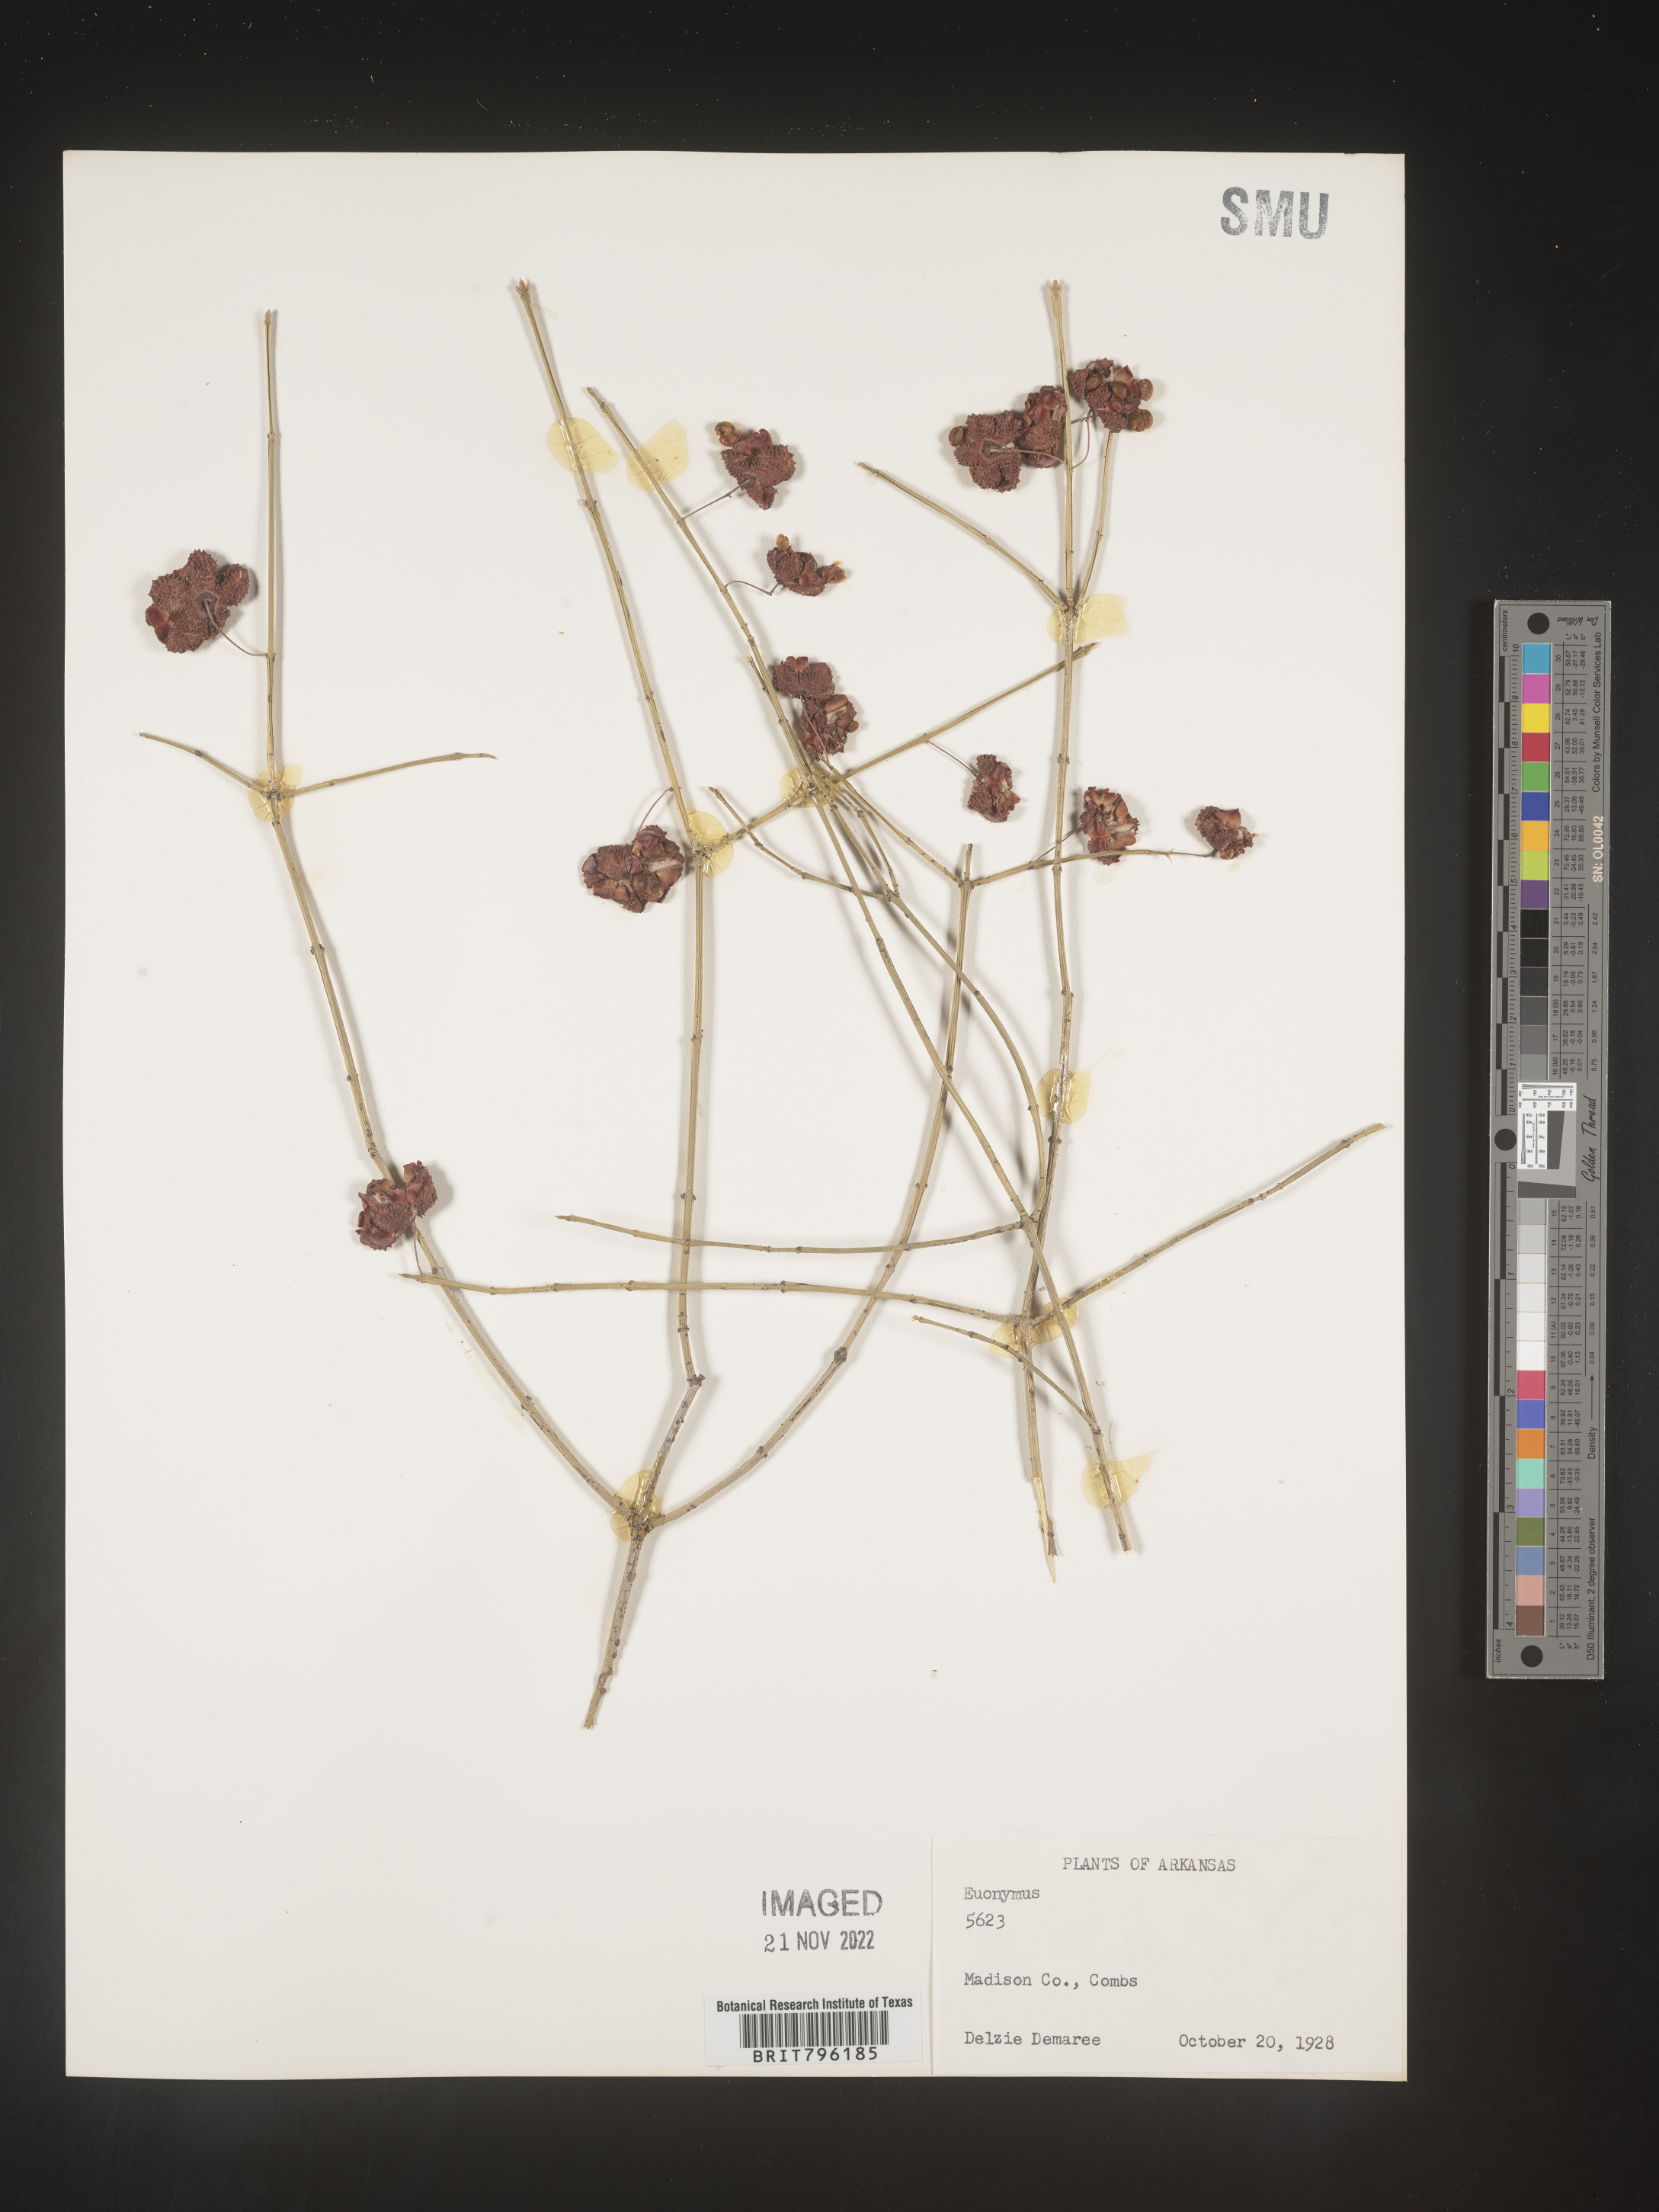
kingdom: Plantae
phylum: Tracheophyta
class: Magnoliopsida
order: Celastrales
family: Celastraceae
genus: Euonymus
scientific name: Euonymus americanus
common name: Bursting-heart
